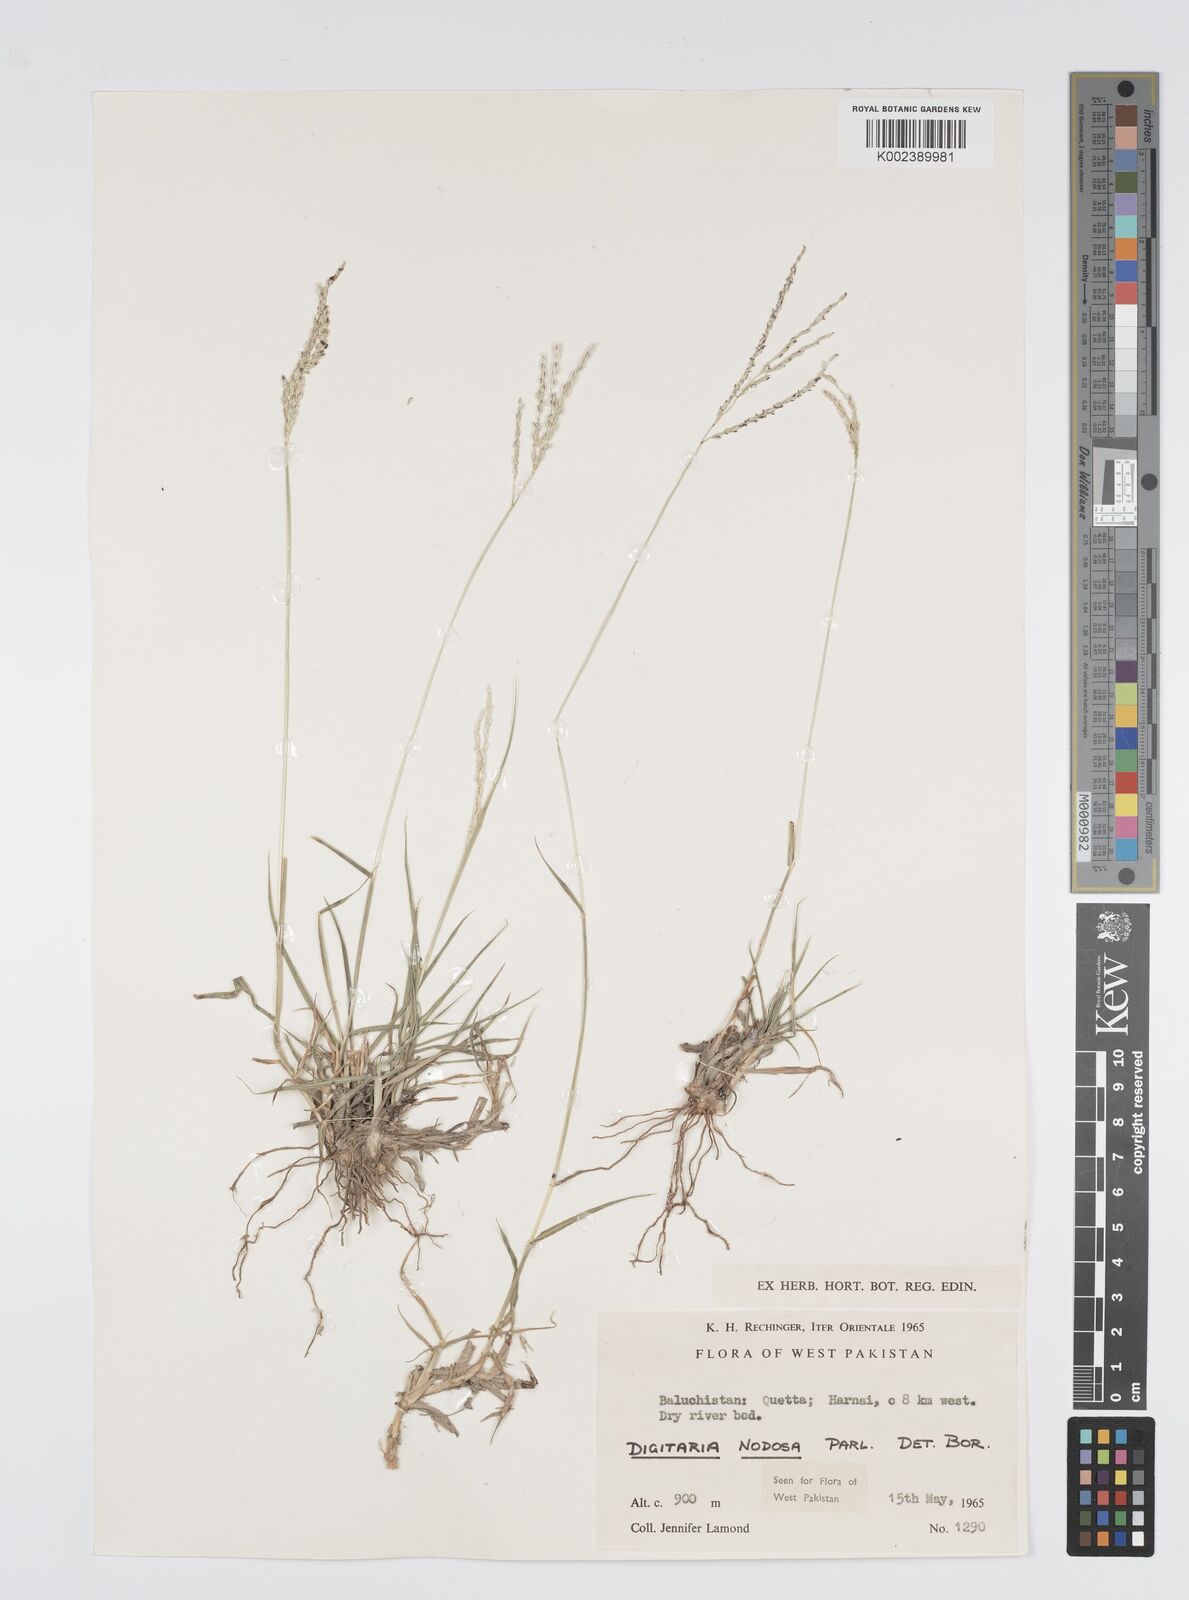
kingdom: Plantae
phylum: Tracheophyta
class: Liliopsida
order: Poales
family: Poaceae
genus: Digitaria
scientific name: Digitaria nodosa
